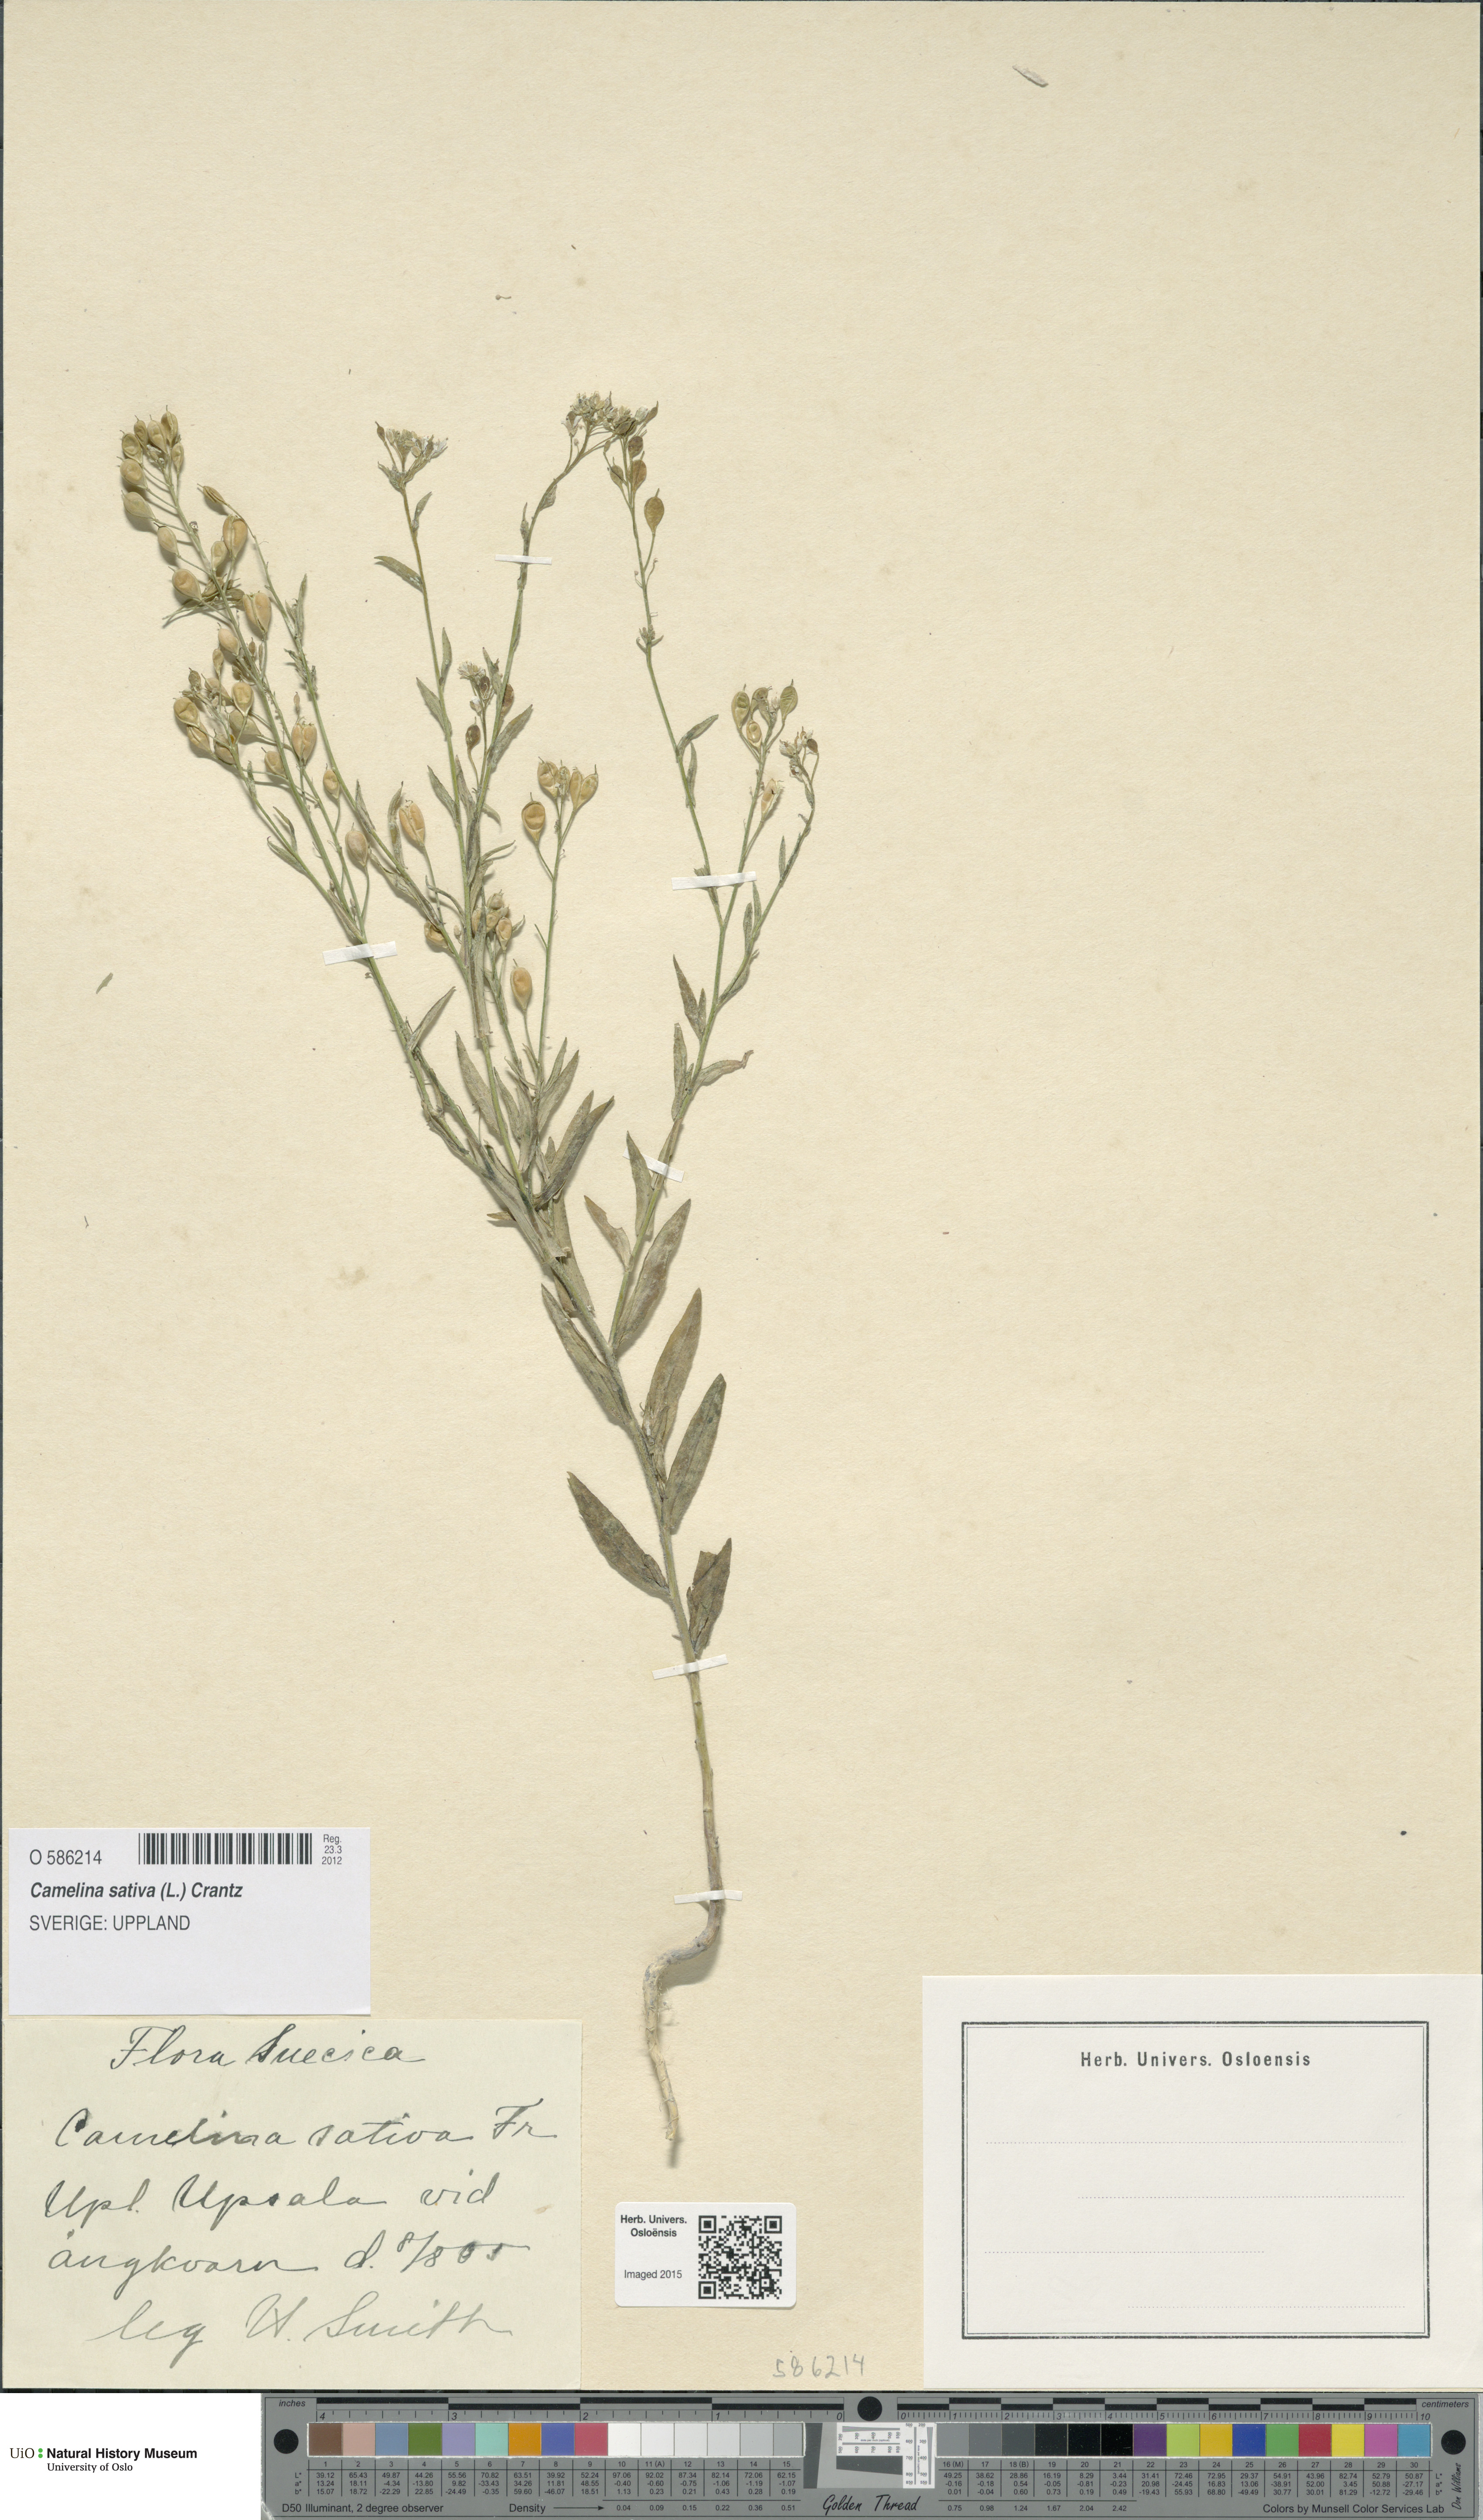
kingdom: Plantae
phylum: Tracheophyta
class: Magnoliopsida
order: Brassicales
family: Brassicaceae
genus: Camelina
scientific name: Camelina sativa
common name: Gold-of-pleasure
